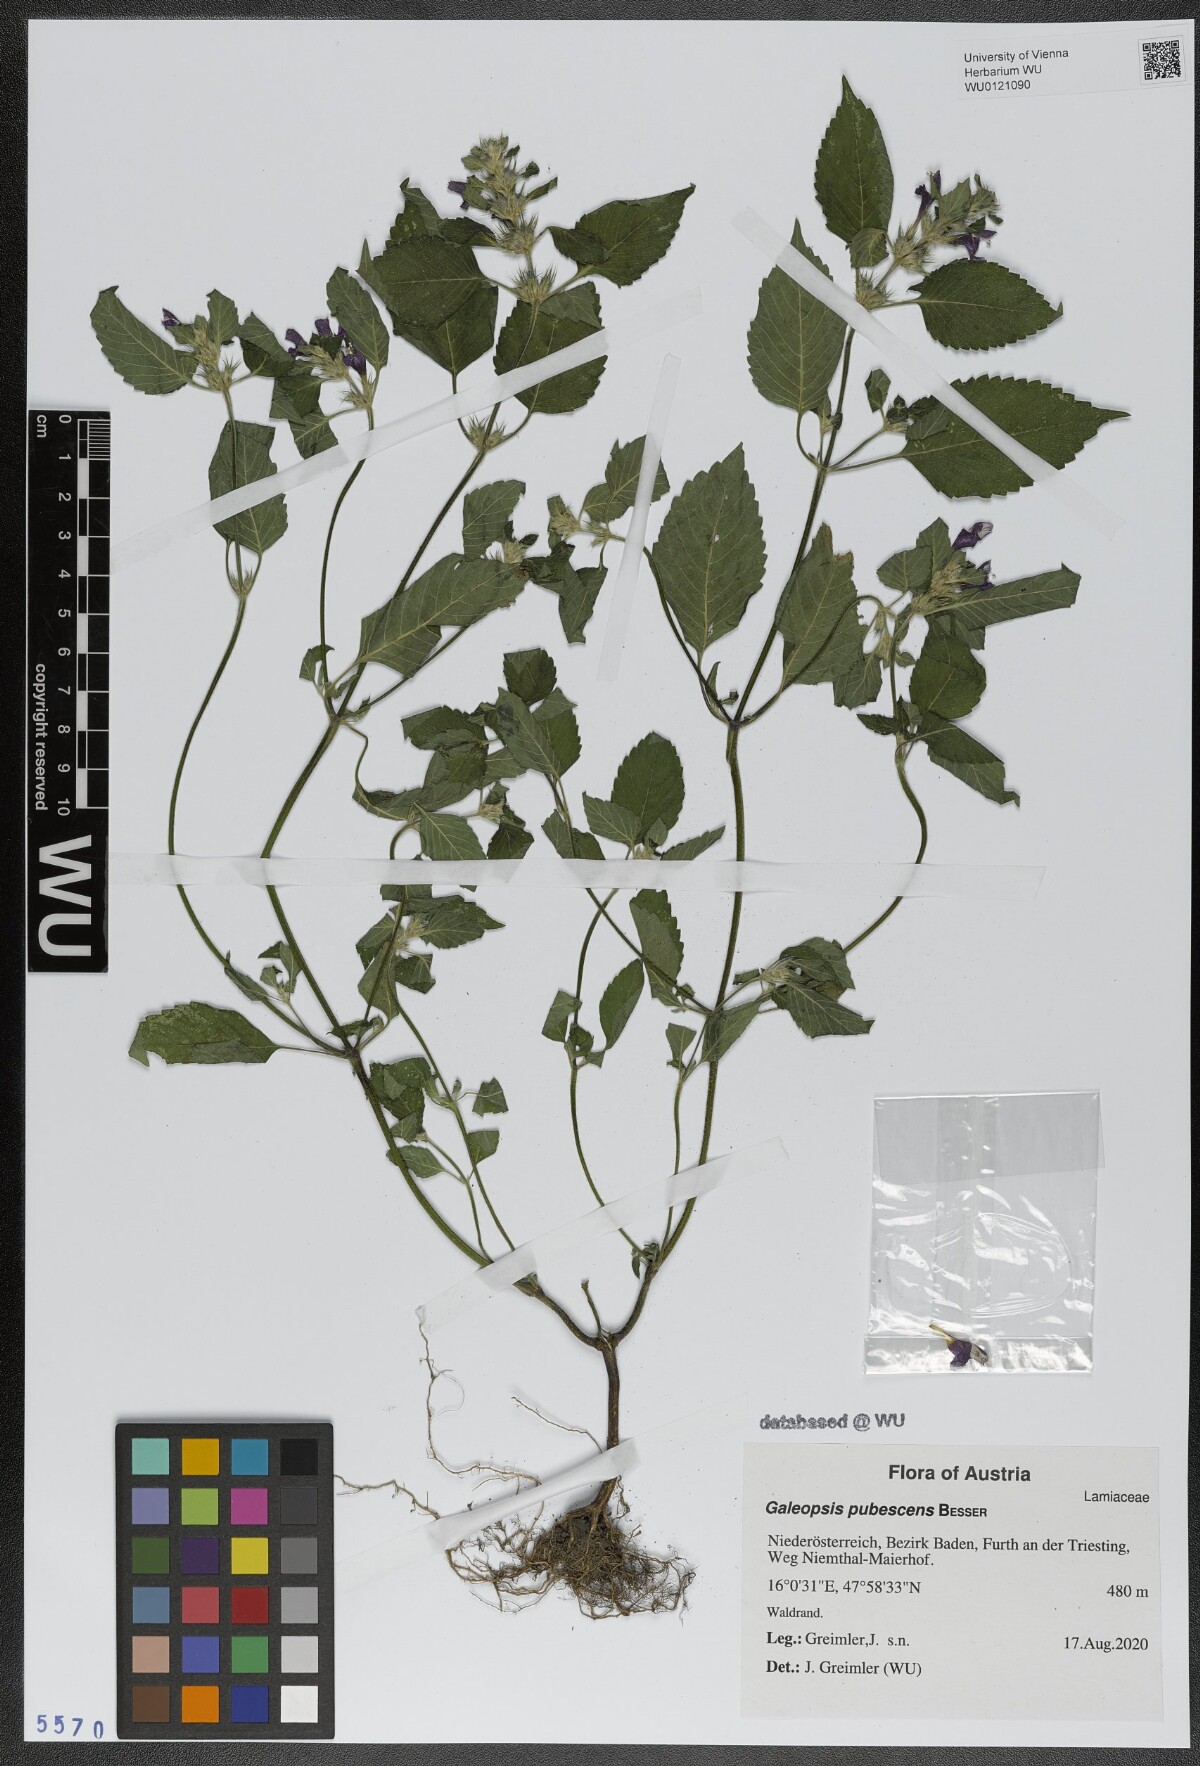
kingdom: Plantae
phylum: Tracheophyta
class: Magnoliopsida
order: Lamiales
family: Lamiaceae
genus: Galeopsis
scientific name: Galeopsis pubescens
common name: Downy hemp-nettle
